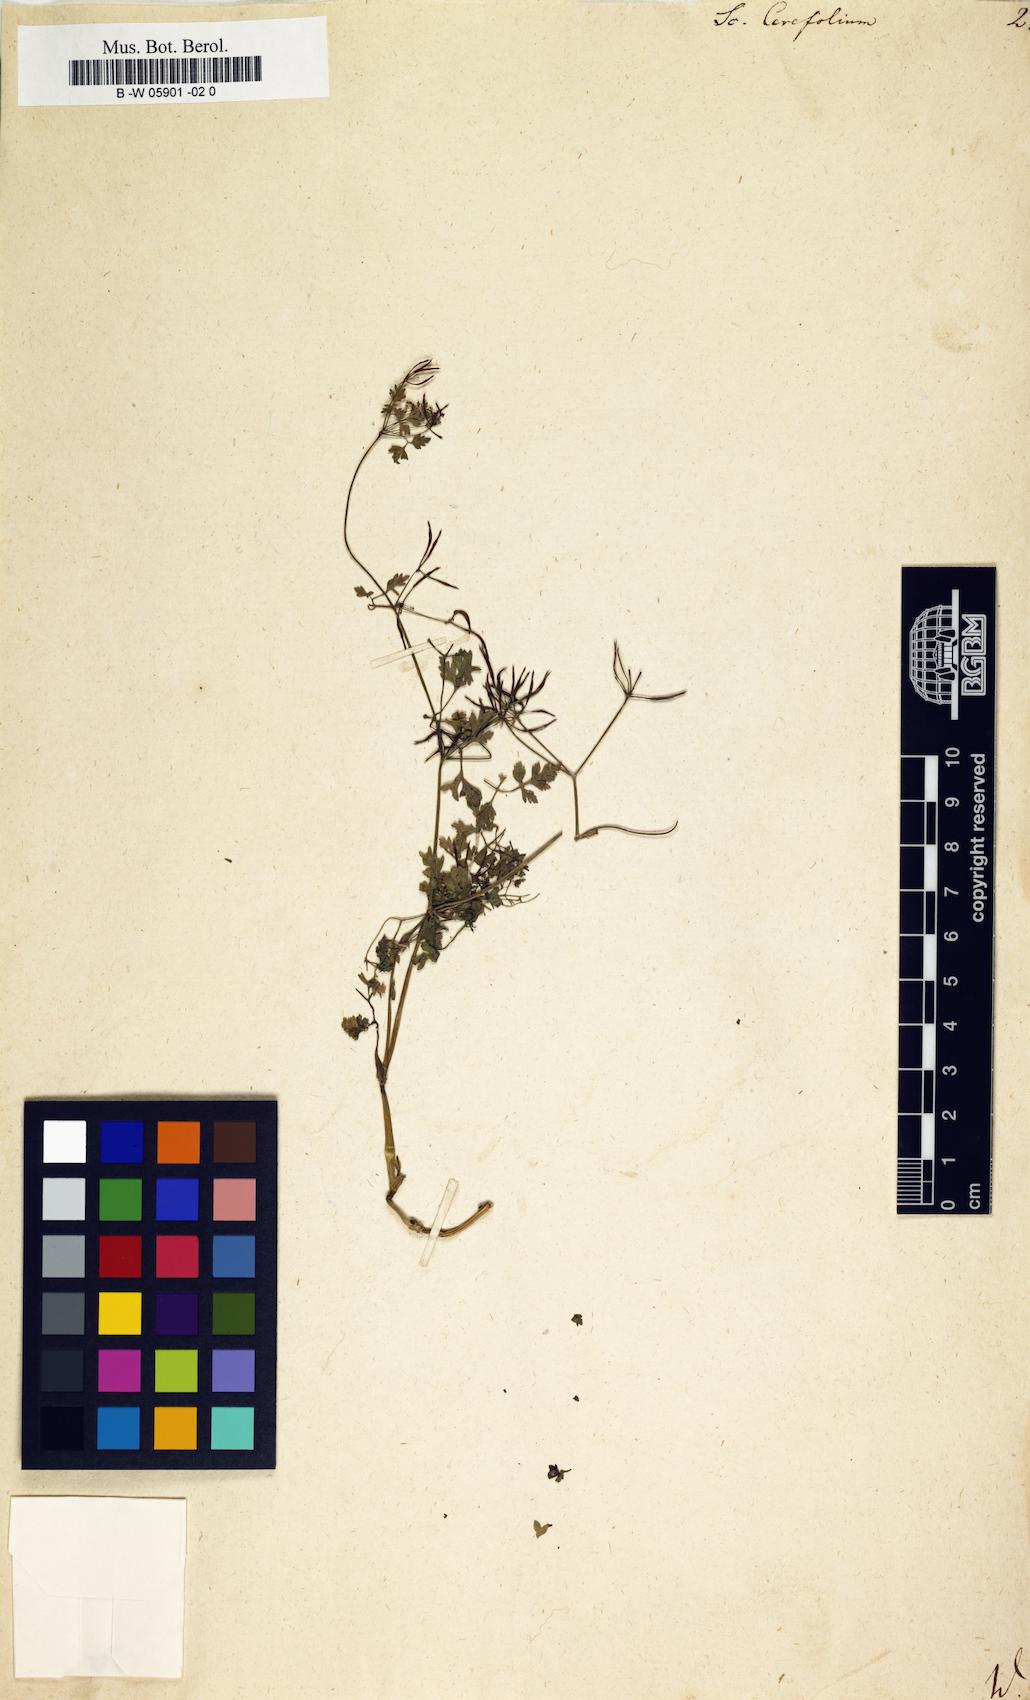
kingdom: Plantae
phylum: Tracheophyta
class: Magnoliopsida
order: Apiales
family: Apiaceae
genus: Anthriscus
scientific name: Anthriscus cerefolium
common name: Garden chervil
